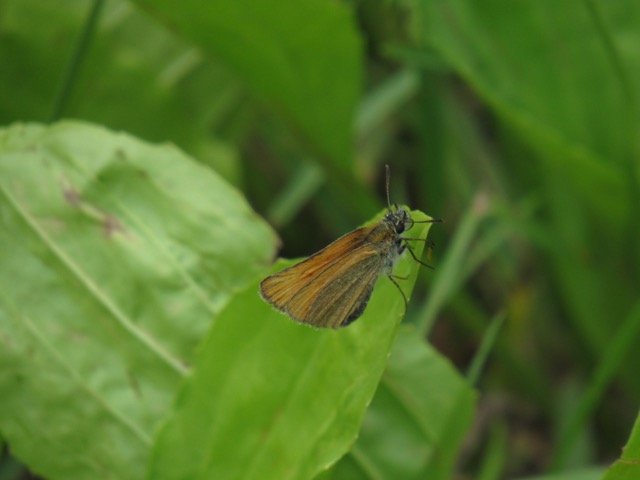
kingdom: Animalia
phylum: Arthropoda
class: Insecta
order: Lepidoptera
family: Hesperiidae
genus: Thymelicus
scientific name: Thymelicus lineola
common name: European Skipper
